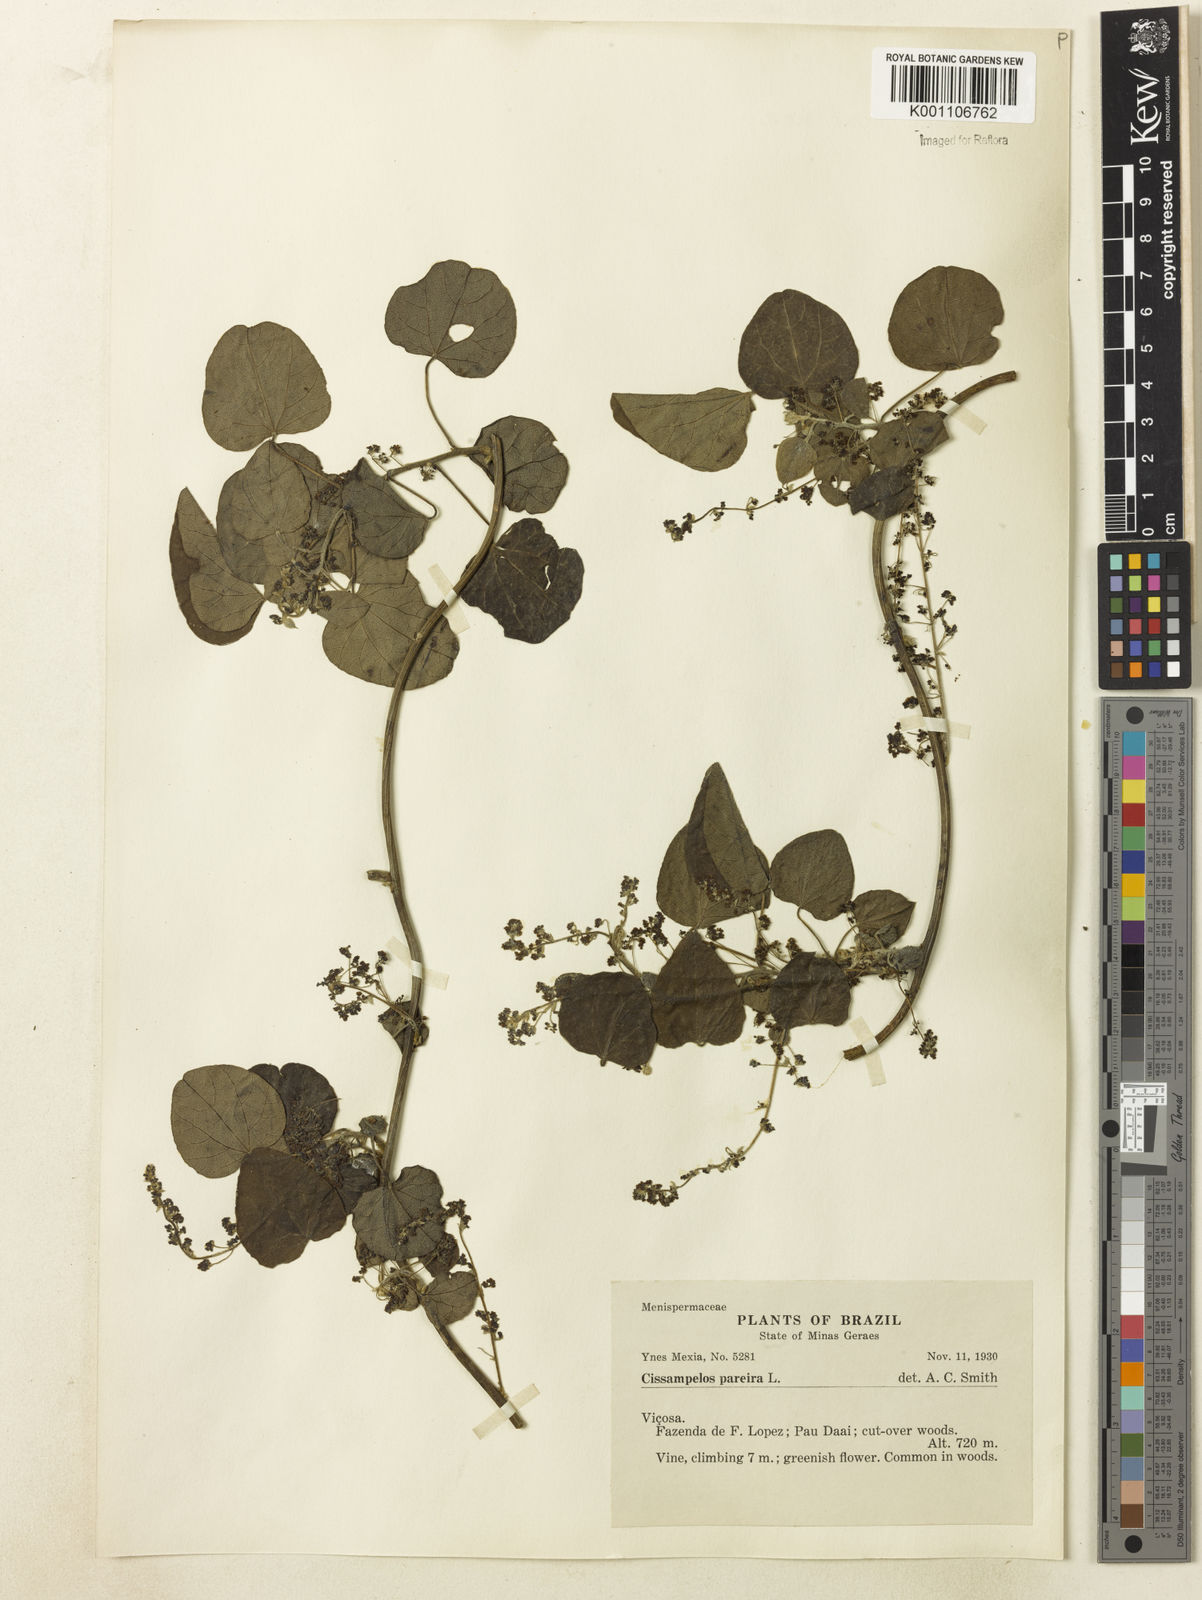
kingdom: Plantae
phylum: Tracheophyta
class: Magnoliopsida
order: Ranunculales
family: Menispermaceae
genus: Cissampelos
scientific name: Cissampelos pareira
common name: Velvetleaf
